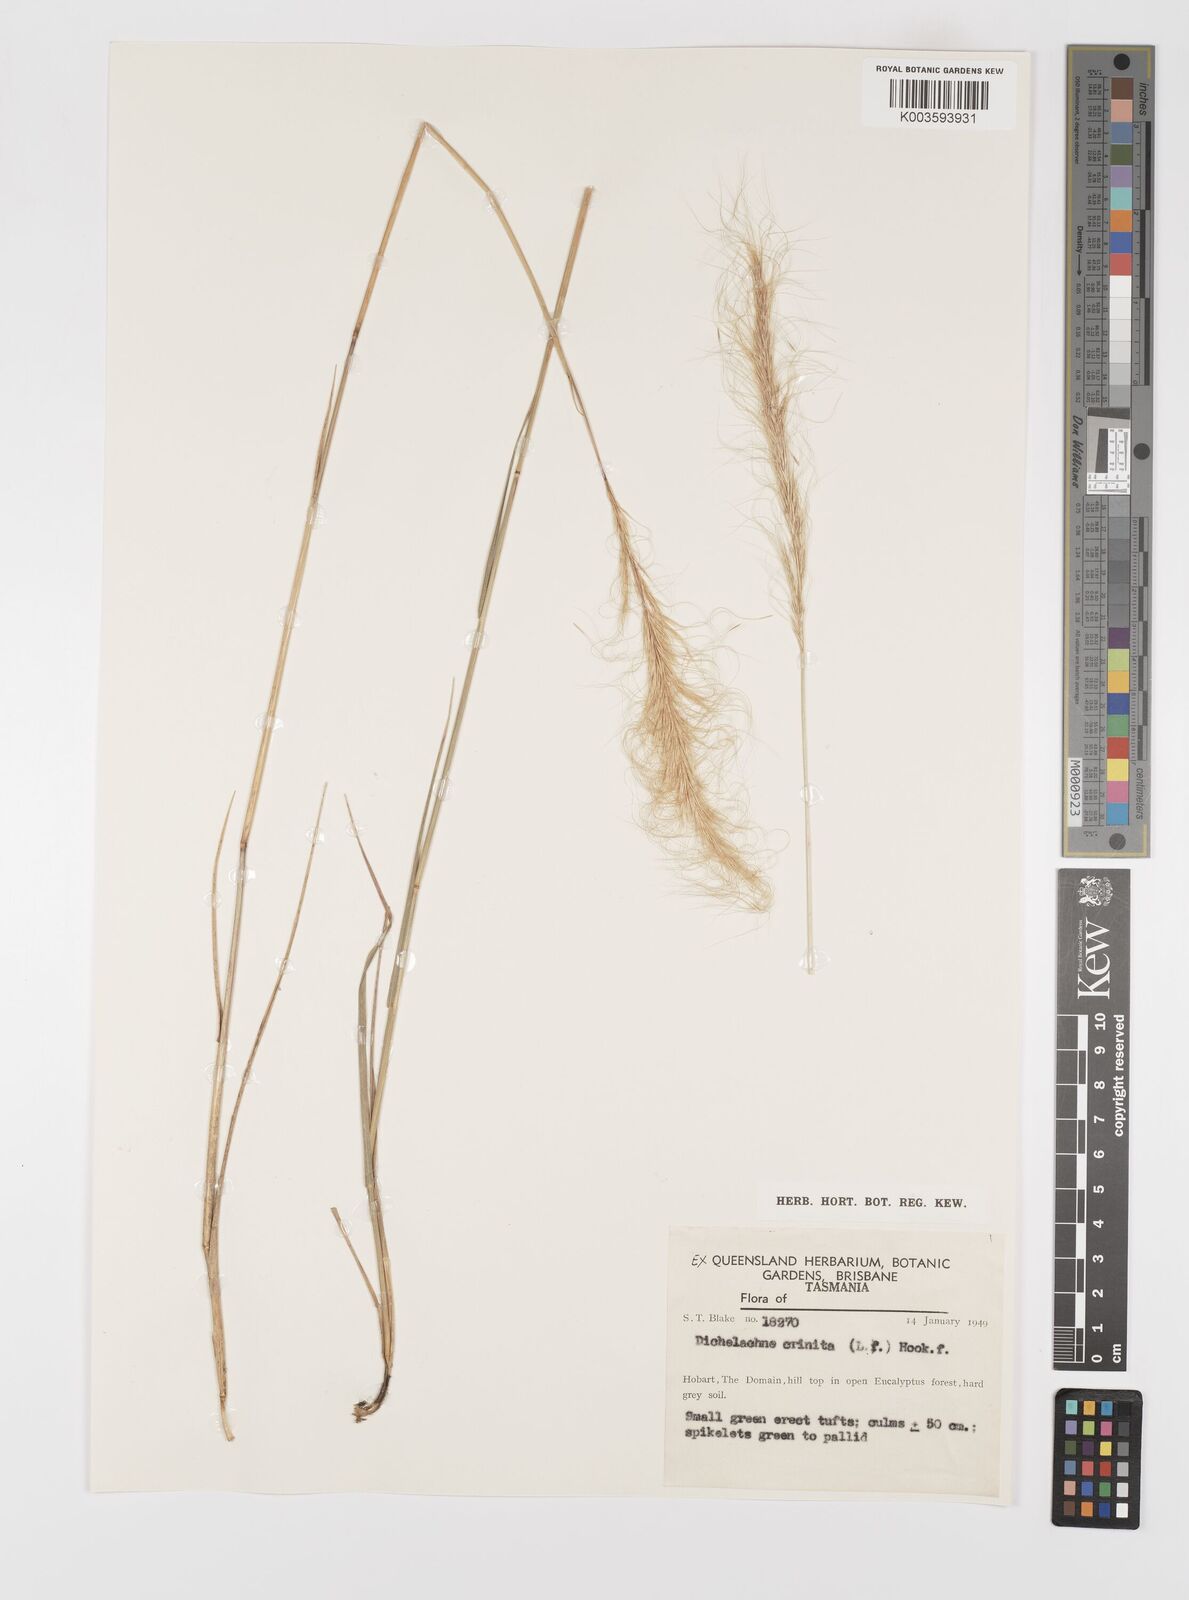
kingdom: Plantae
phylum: Tracheophyta
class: Liliopsida
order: Poales
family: Poaceae
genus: Dichelachne
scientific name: Dichelachne crinita
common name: Clovenfoot plumegrass
